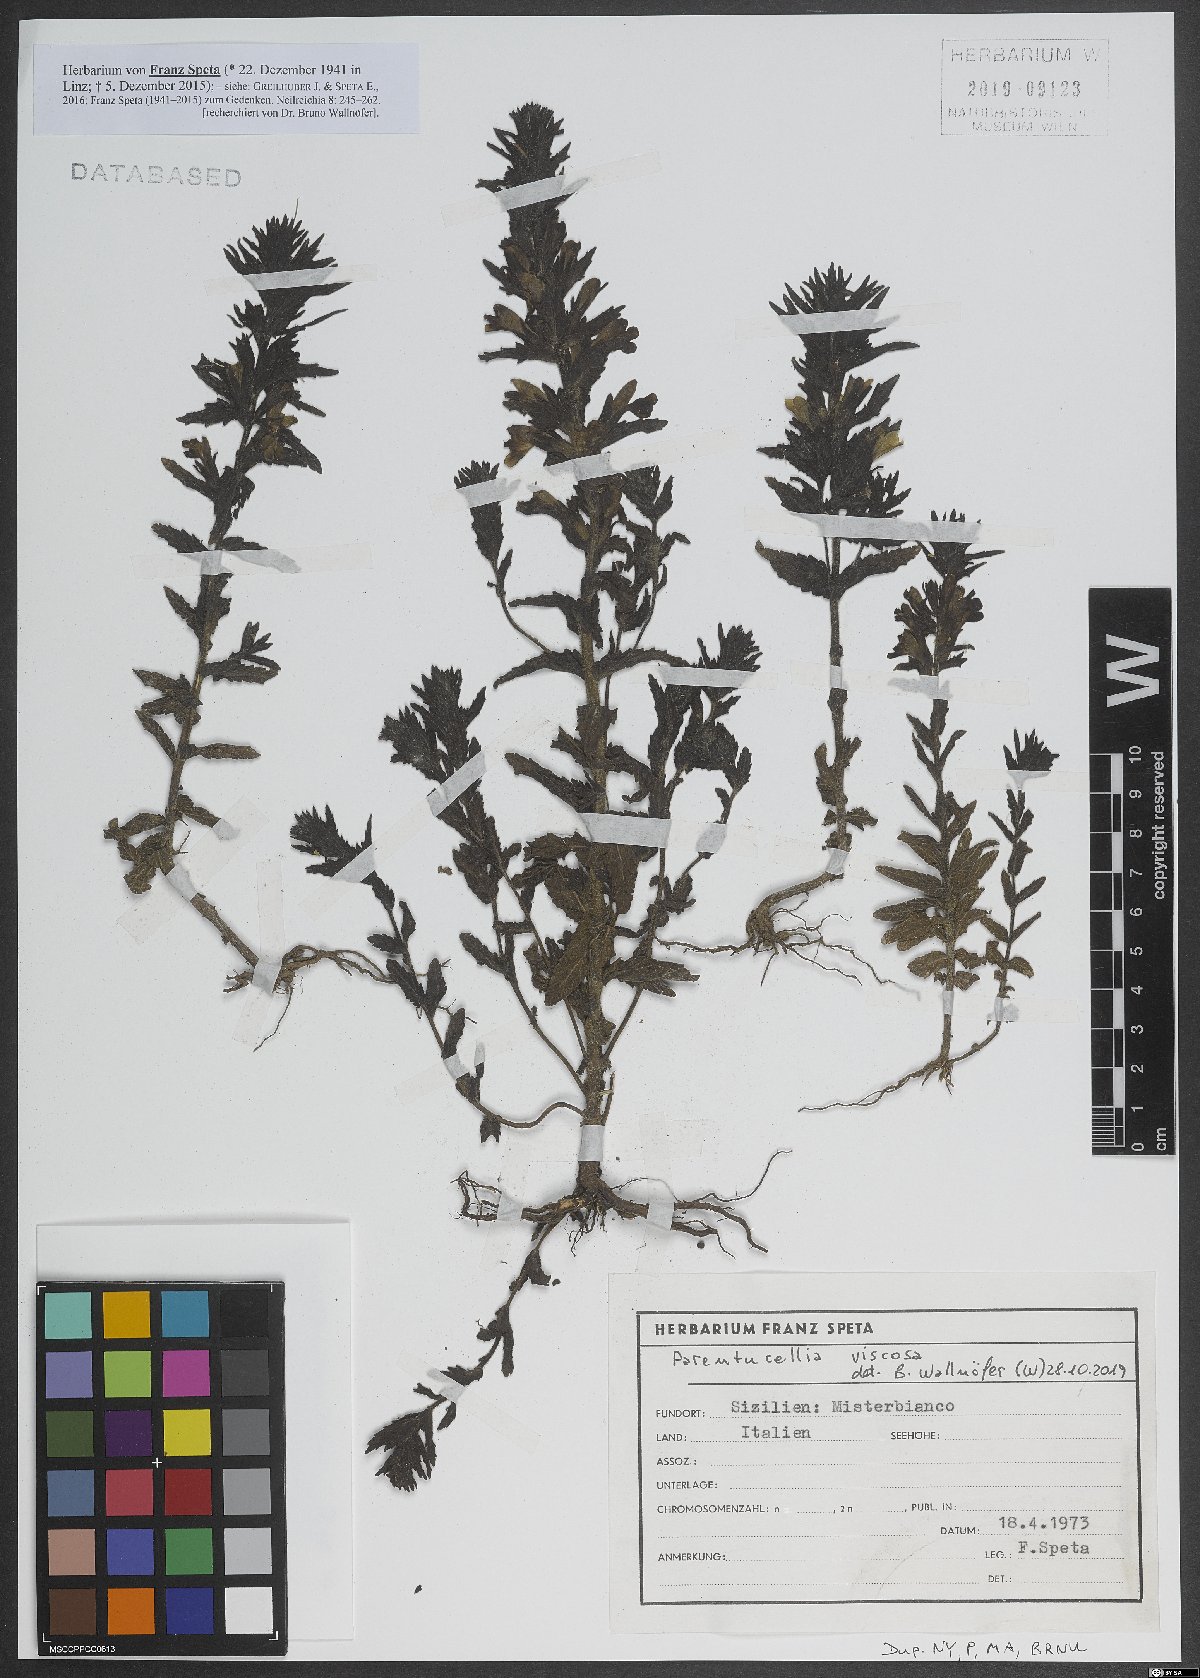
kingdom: Plantae
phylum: Tracheophyta
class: Magnoliopsida
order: Lamiales
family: Orobanchaceae
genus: Bellardia
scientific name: Bellardia viscosa
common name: Sticky parentucellia
